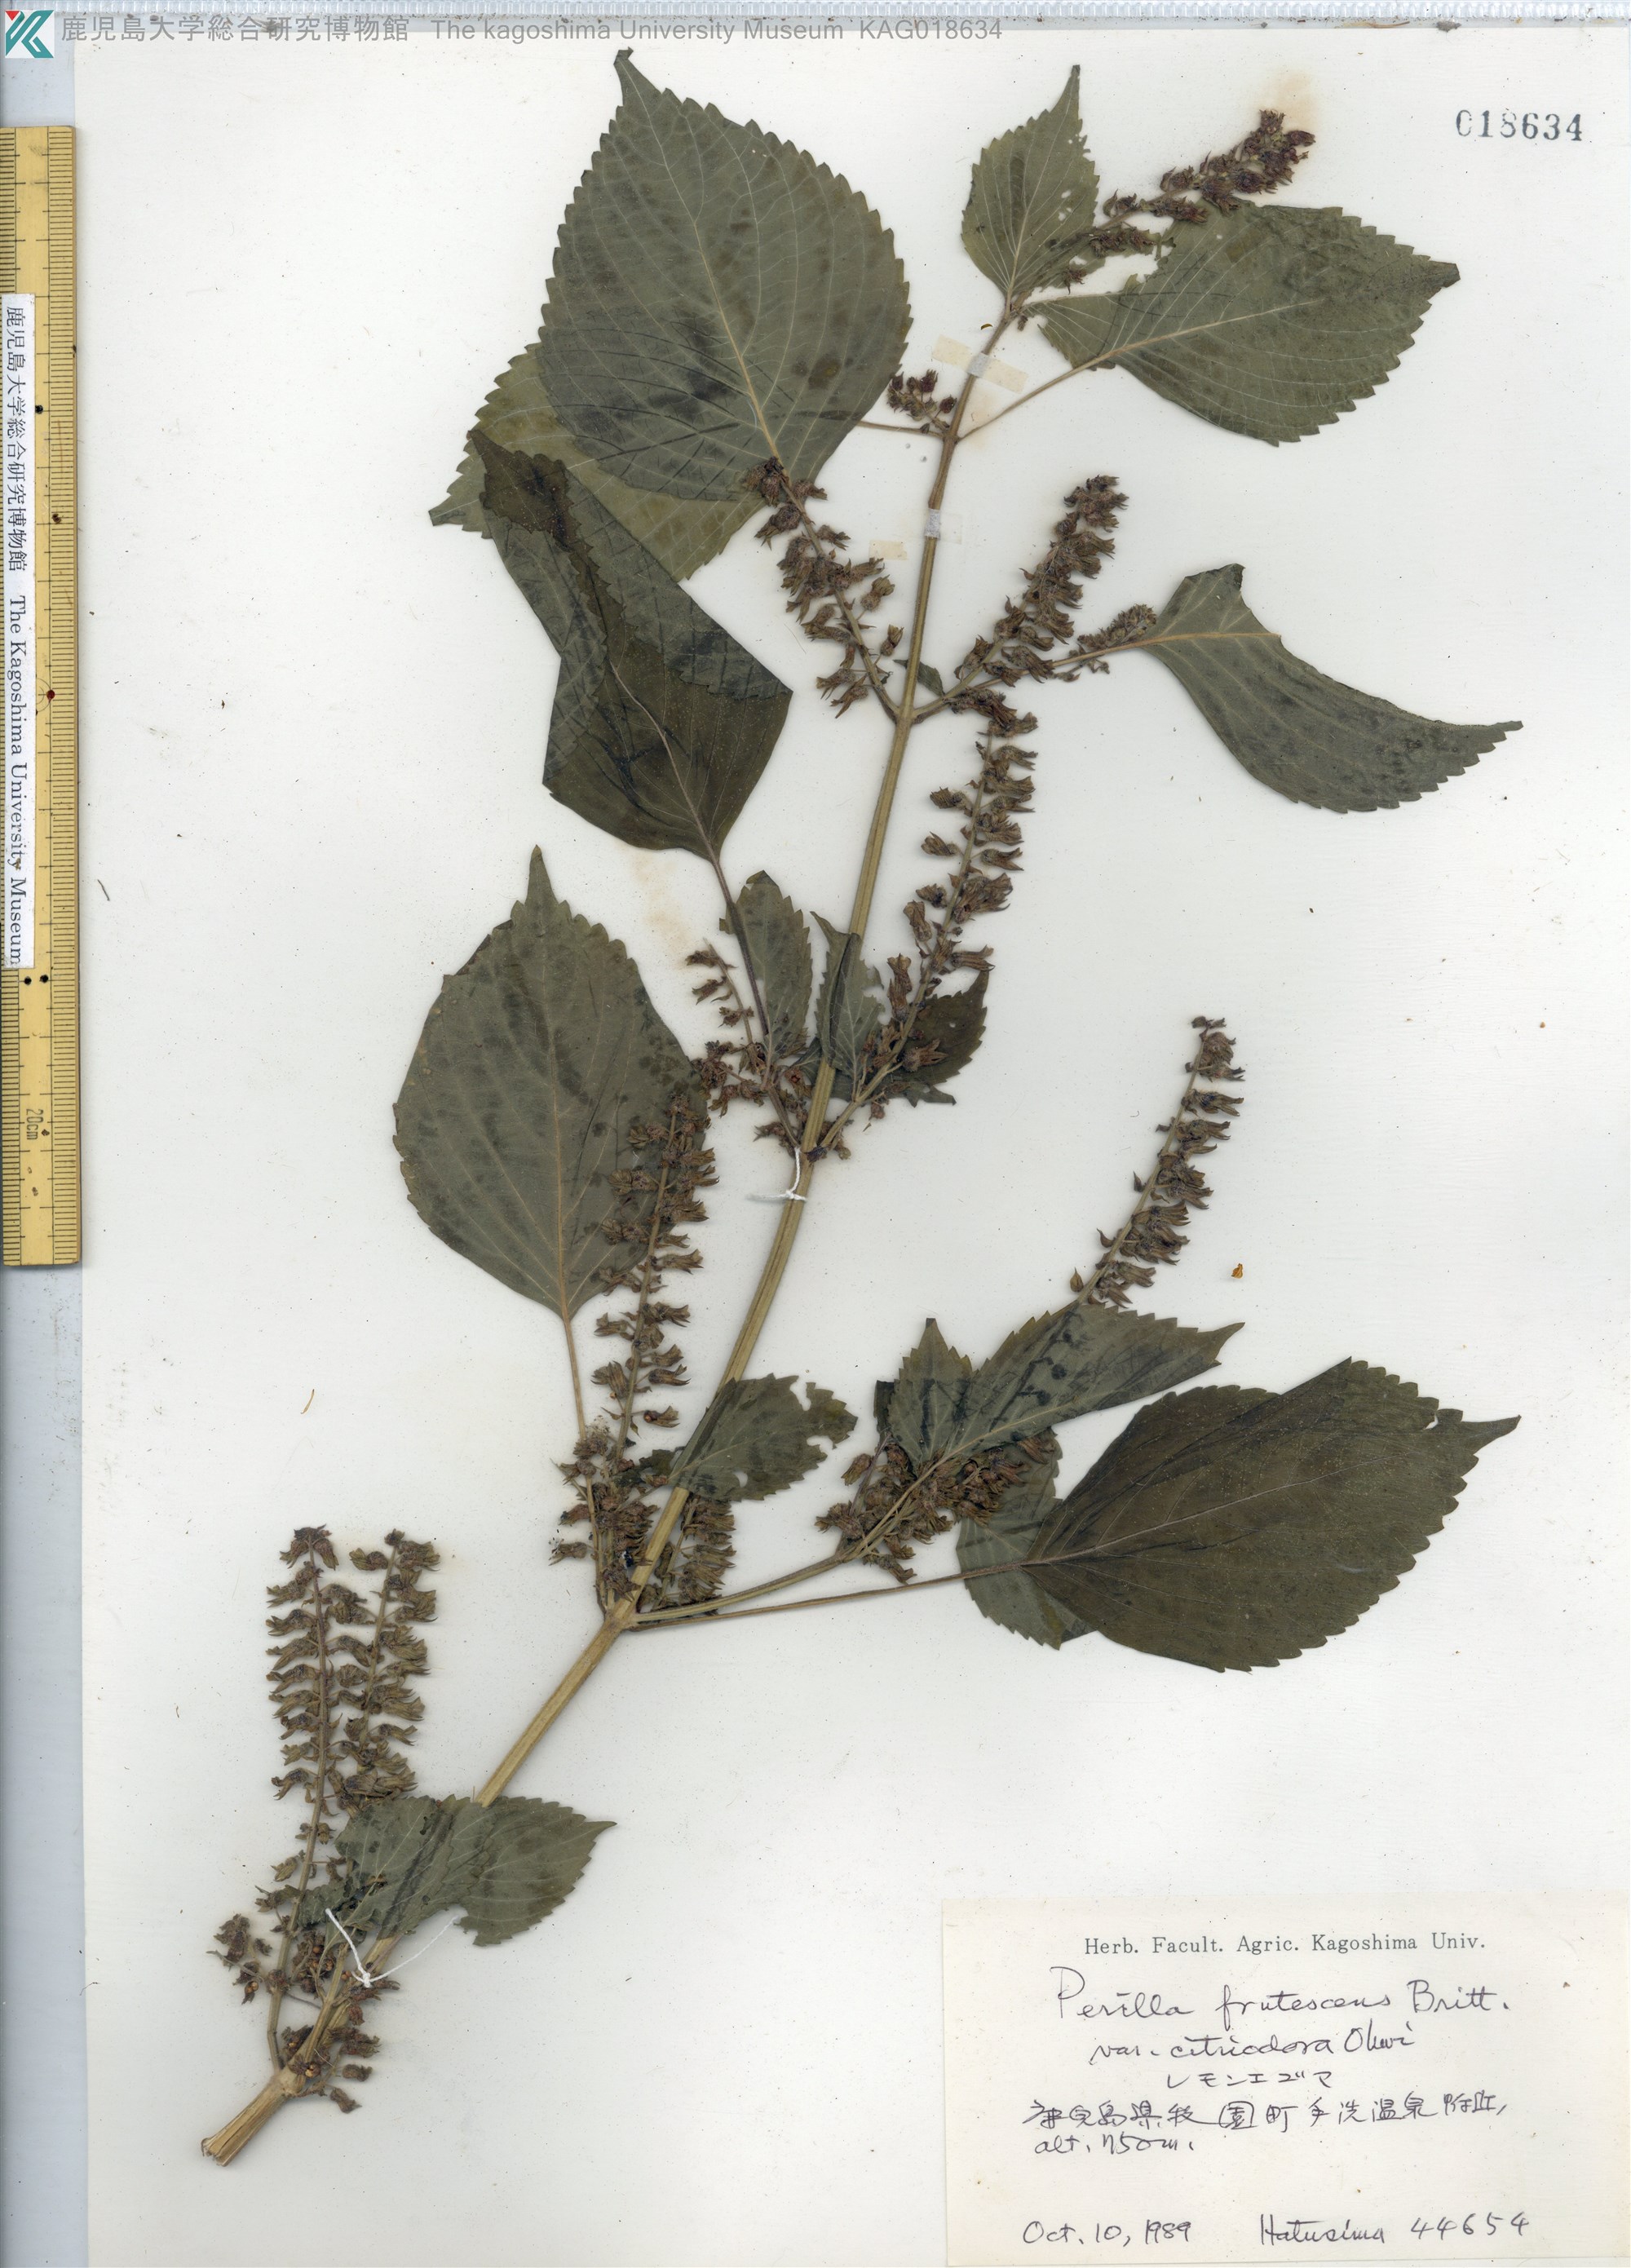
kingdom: Plantae
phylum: Tracheophyta
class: Magnoliopsida
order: Lamiales
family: Lamiaceae
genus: Perilla
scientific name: Perilla frutescens
